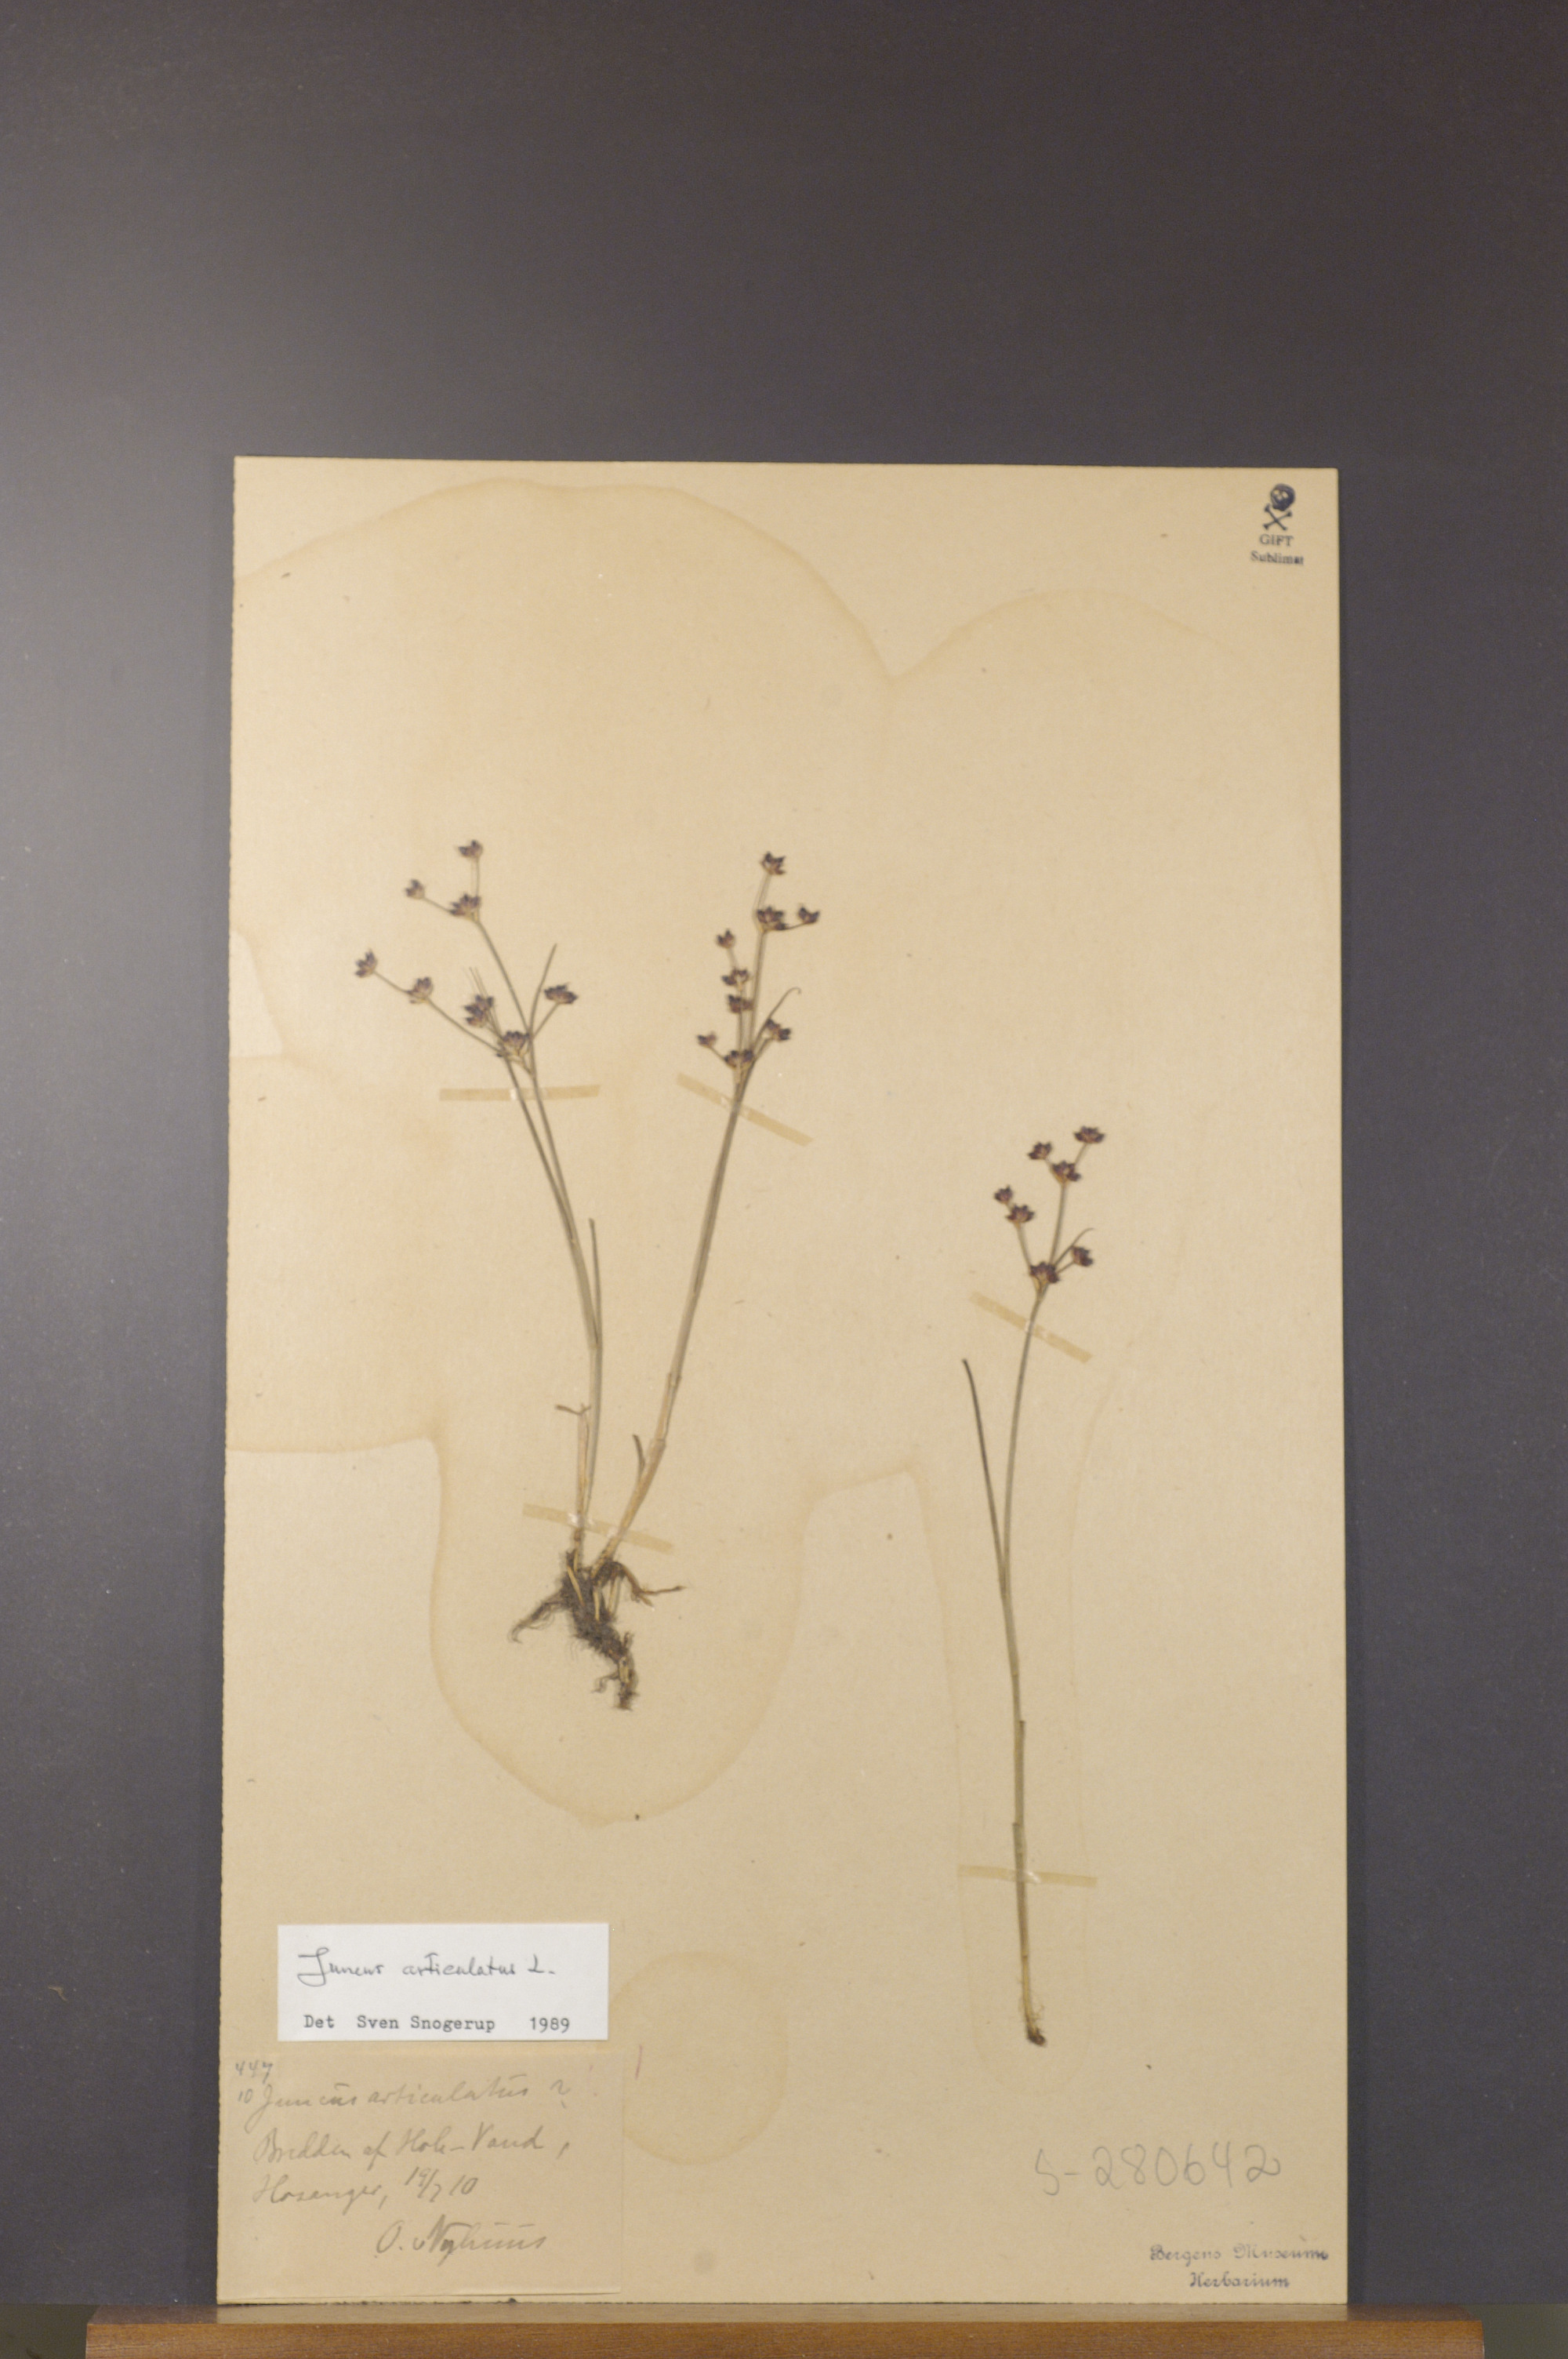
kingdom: Plantae
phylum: Tracheophyta
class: Liliopsida
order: Poales
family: Juncaceae
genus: Juncus
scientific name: Juncus articulatus
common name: Jointed rush
